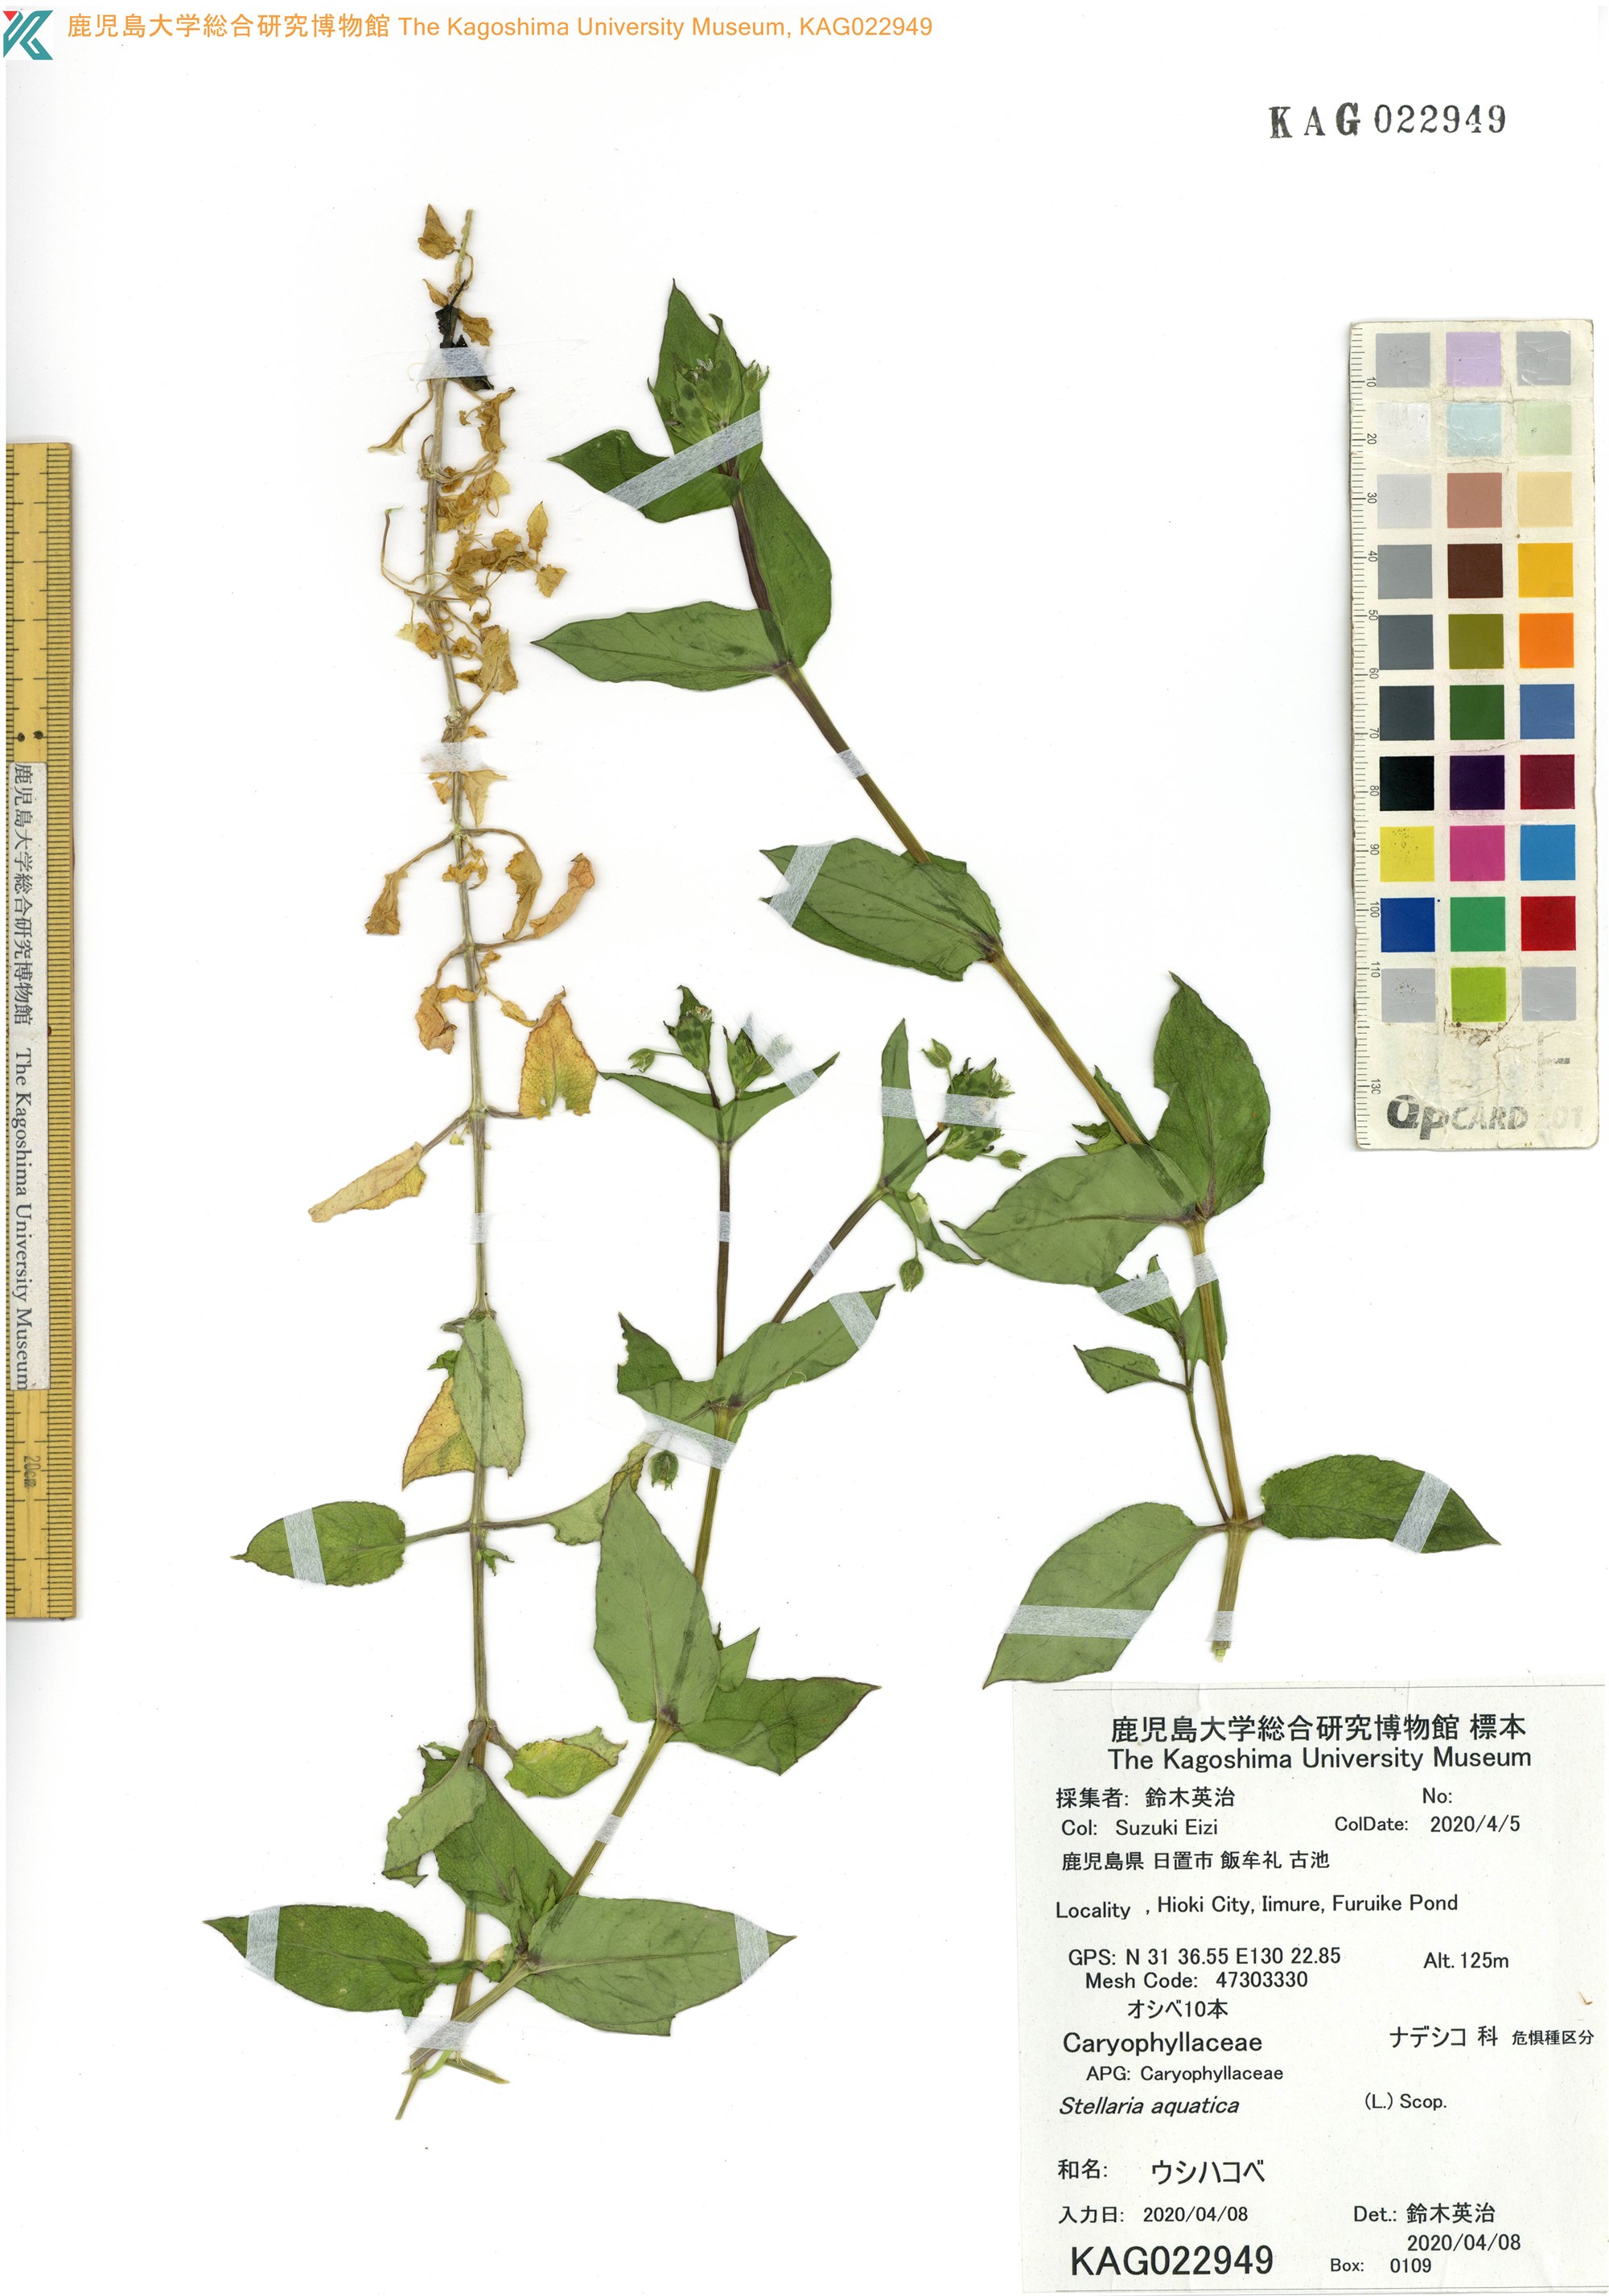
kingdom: Plantae
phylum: Tracheophyta
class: Magnoliopsida
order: Caryophyllales
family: Caryophyllaceae
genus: Stellaria
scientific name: Stellaria aquatica
